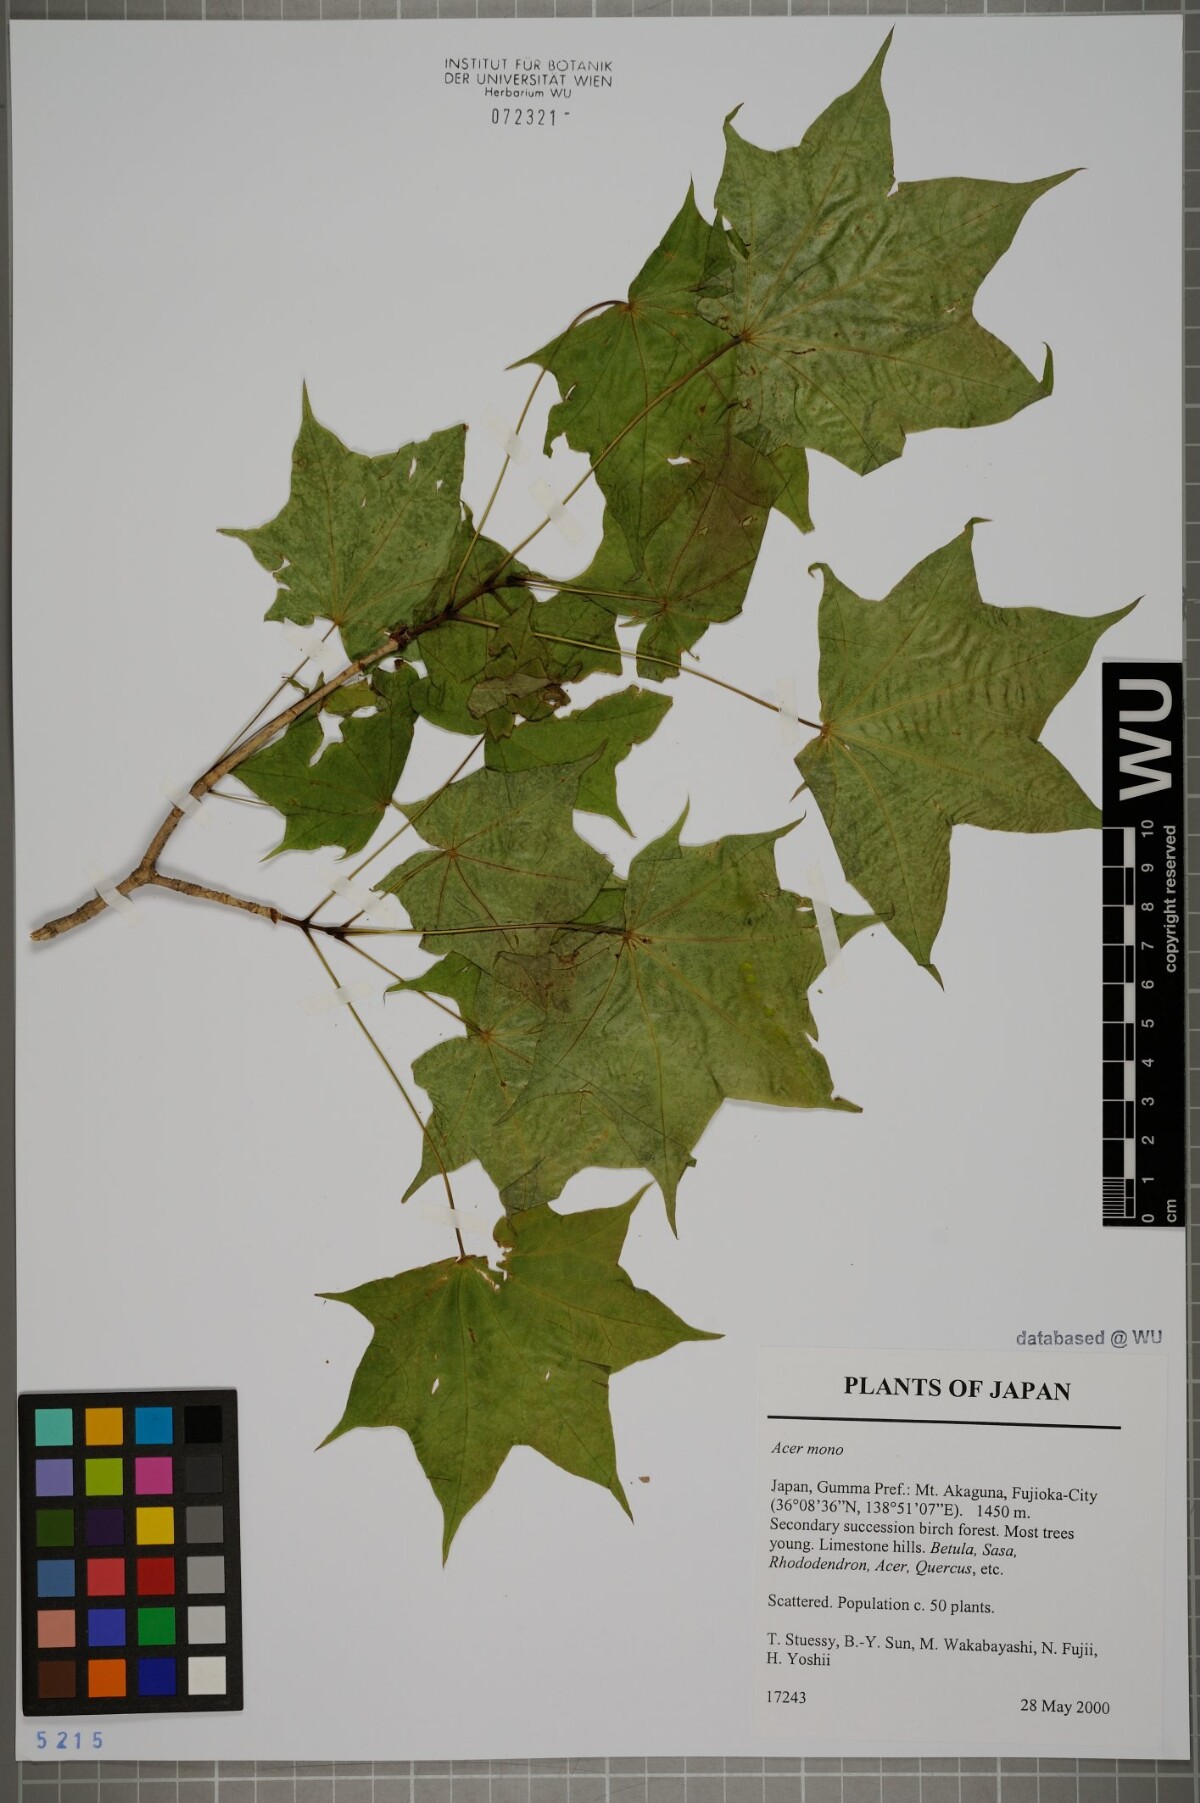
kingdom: Plantae
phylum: Tracheophyta
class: Magnoliopsida
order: Sapindales
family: Sapindaceae
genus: Acer
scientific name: Acer pictum
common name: The painted maple
